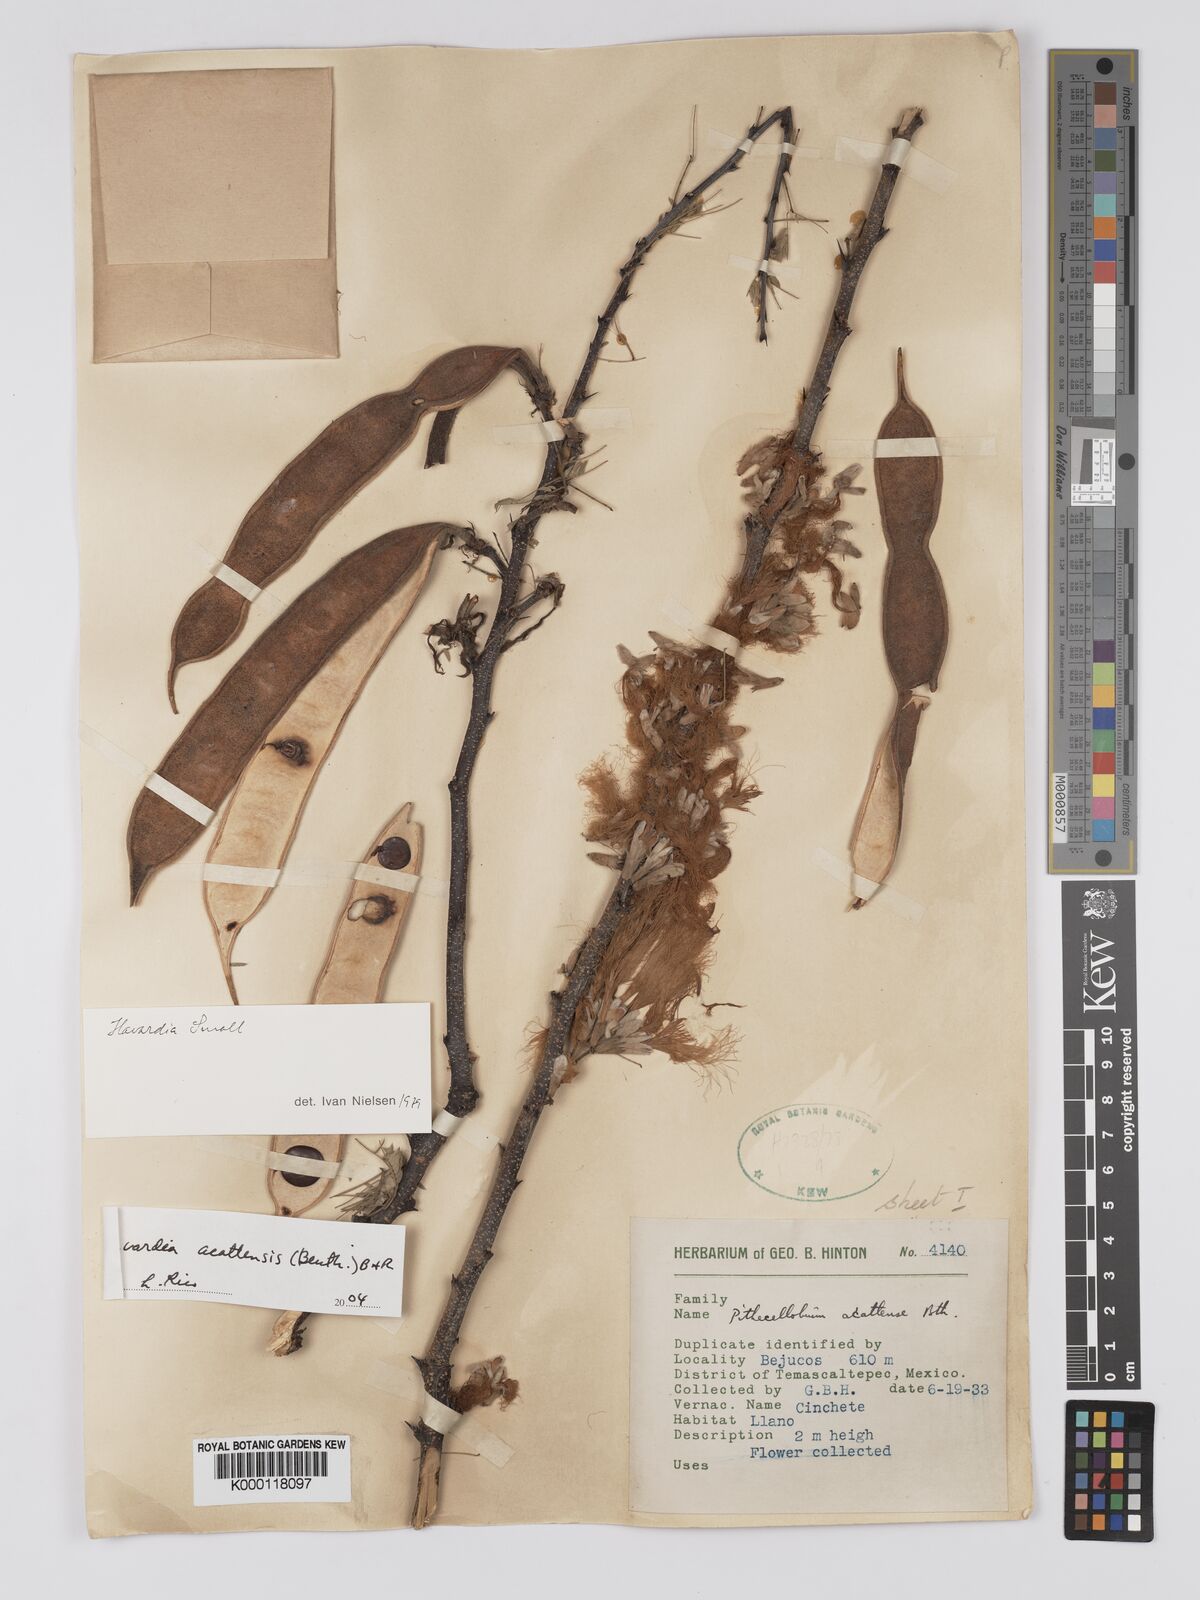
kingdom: Plantae
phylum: Tracheophyta
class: Magnoliopsida
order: Fabales
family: Fabaceae
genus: Havardia
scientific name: Havardia acatlensis
